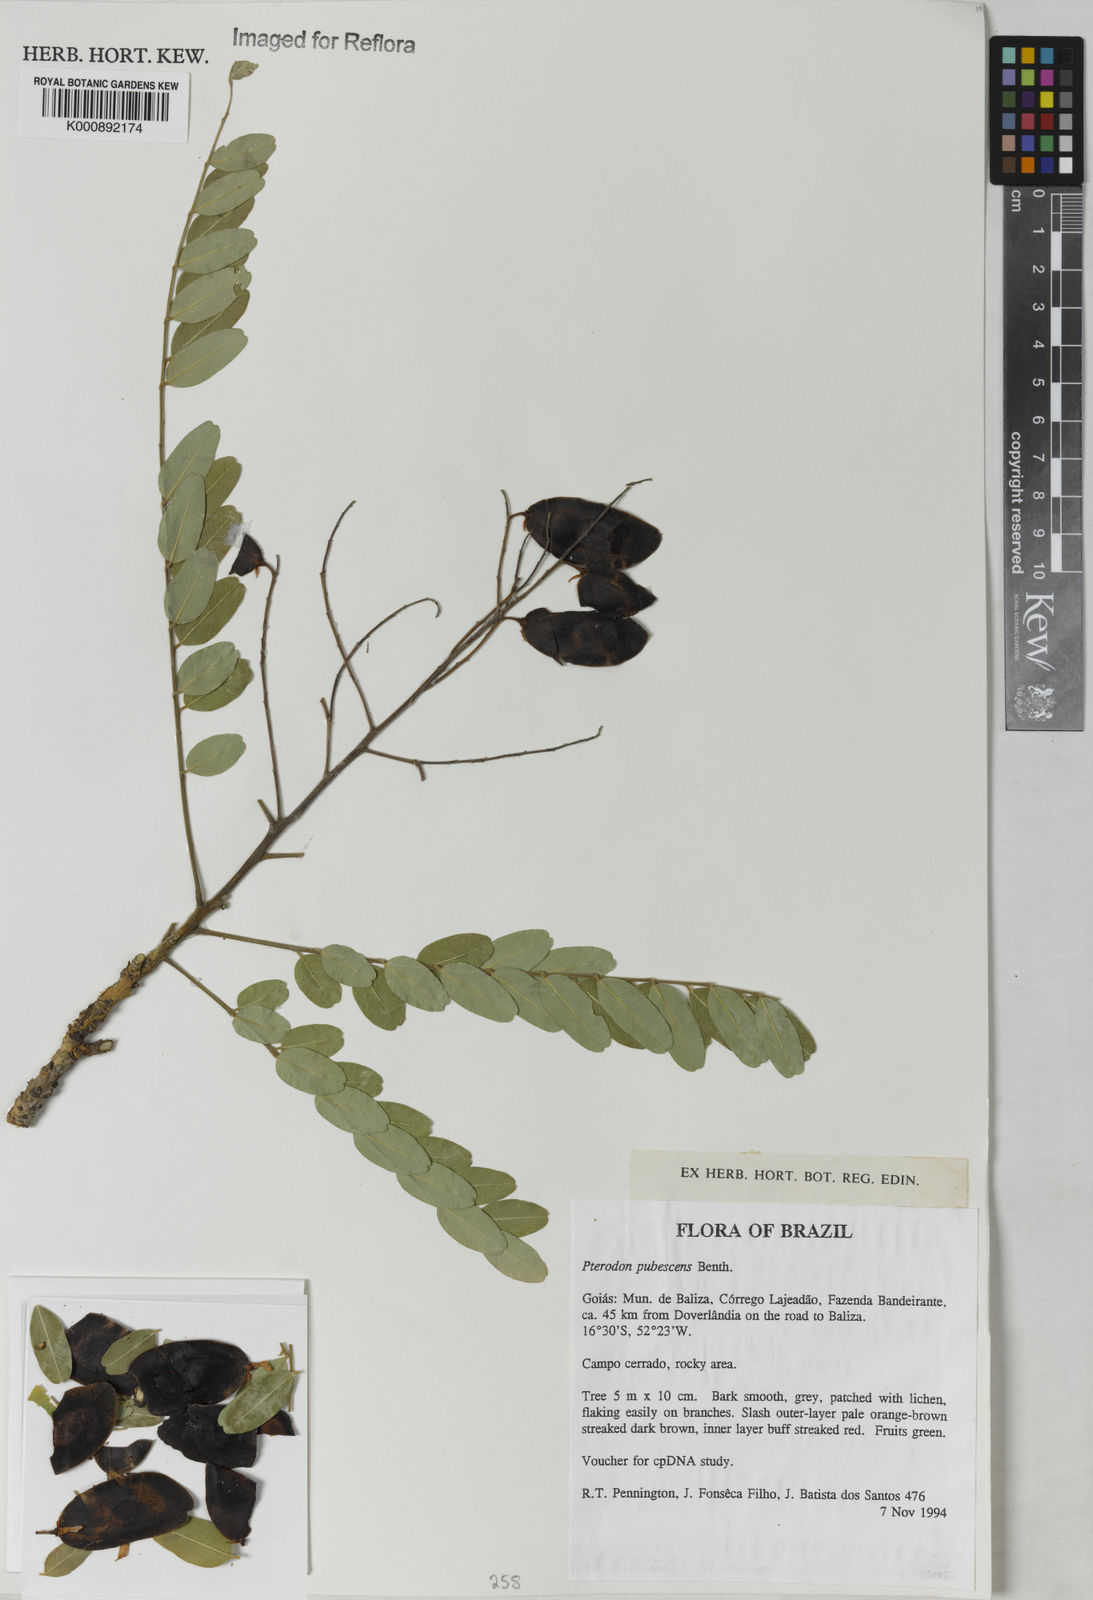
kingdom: Plantae
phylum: Tracheophyta
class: Magnoliopsida
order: Fabales
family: Fabaceae
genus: Pterodon
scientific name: Pterodon emarginatus
